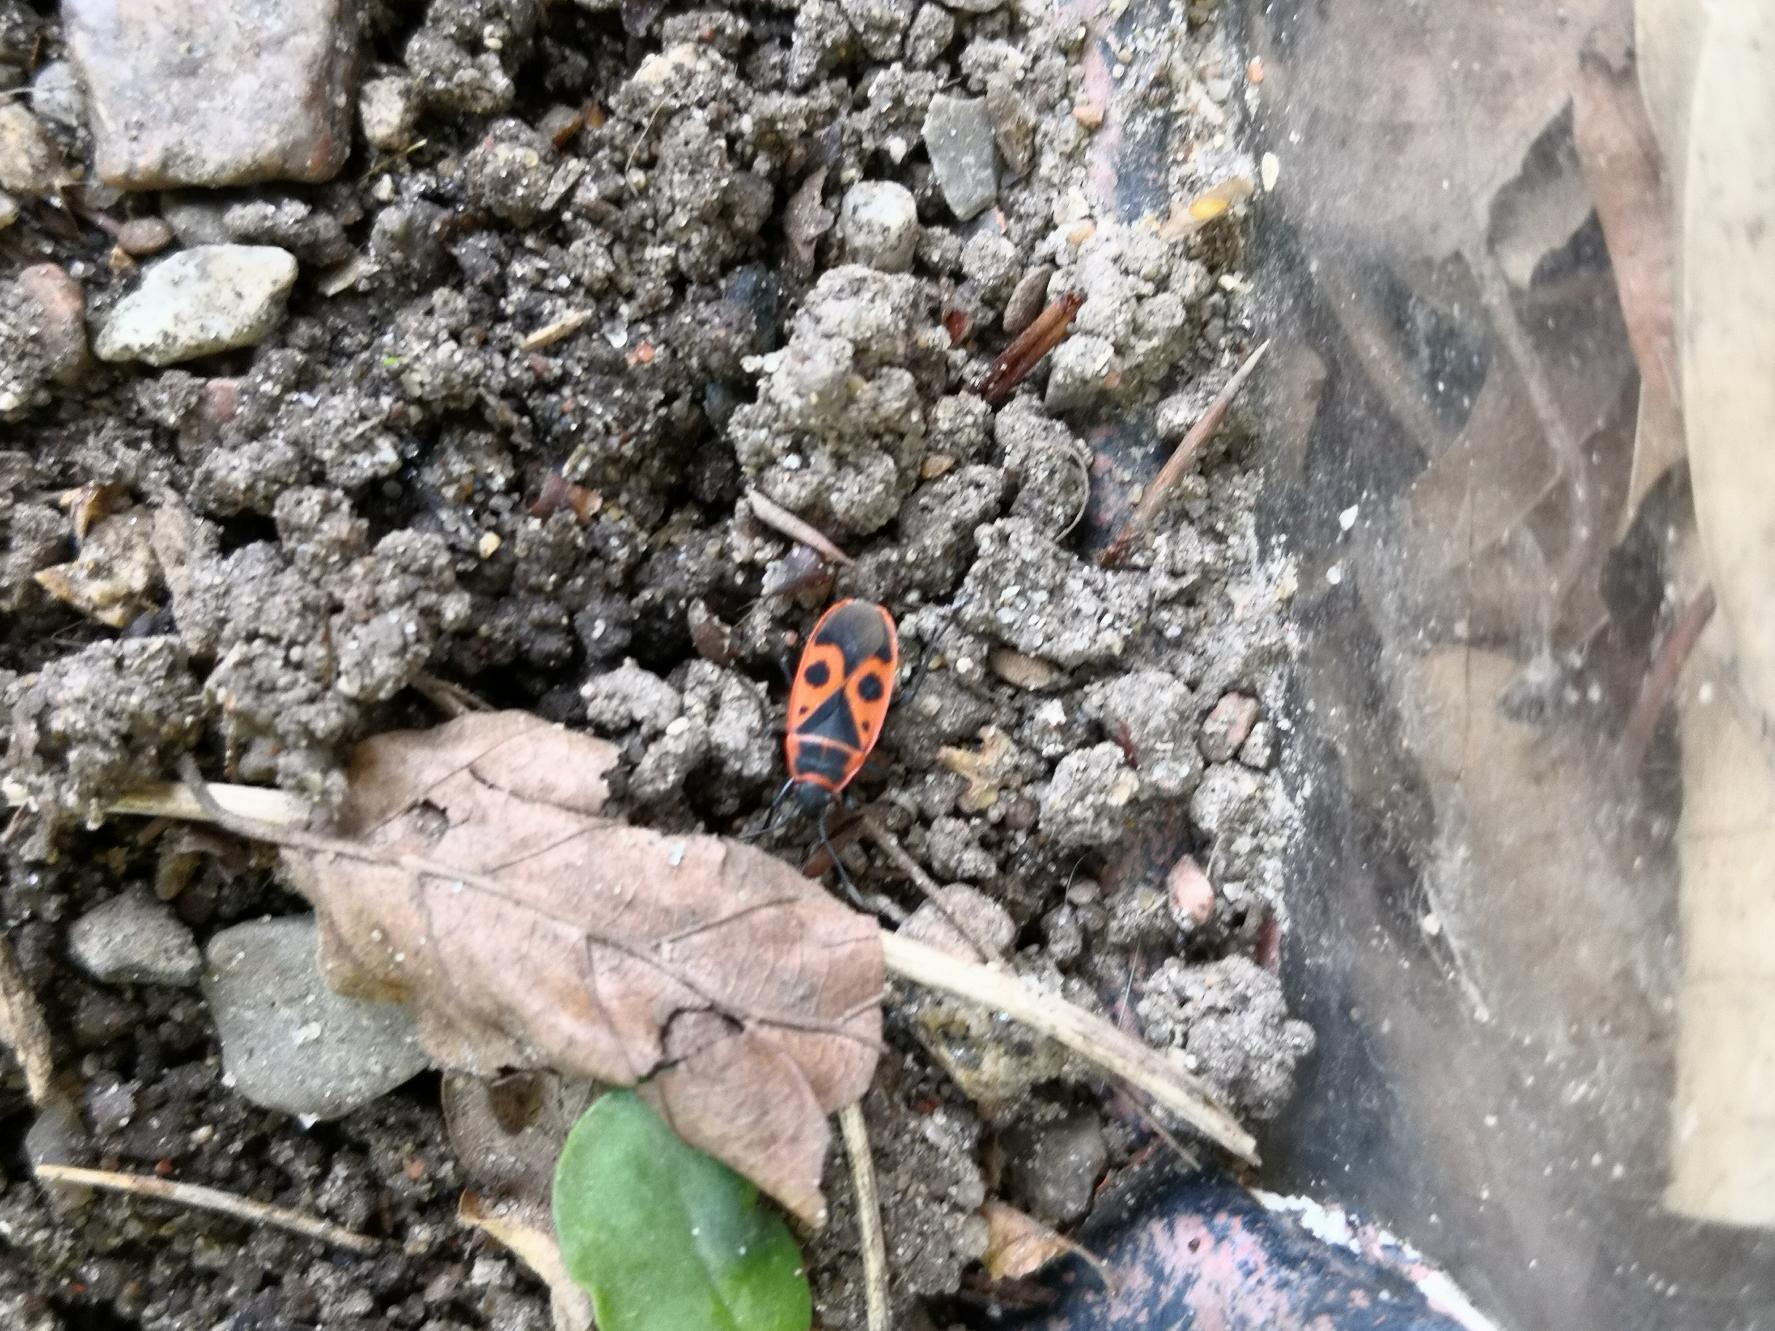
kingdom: Animalia
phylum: Arthropoda
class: Insecta
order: Hemiptera
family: Pyrrhocoridae
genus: Pyrrhocoris
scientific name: Pyrrhocoris apterus
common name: Ildtæge
